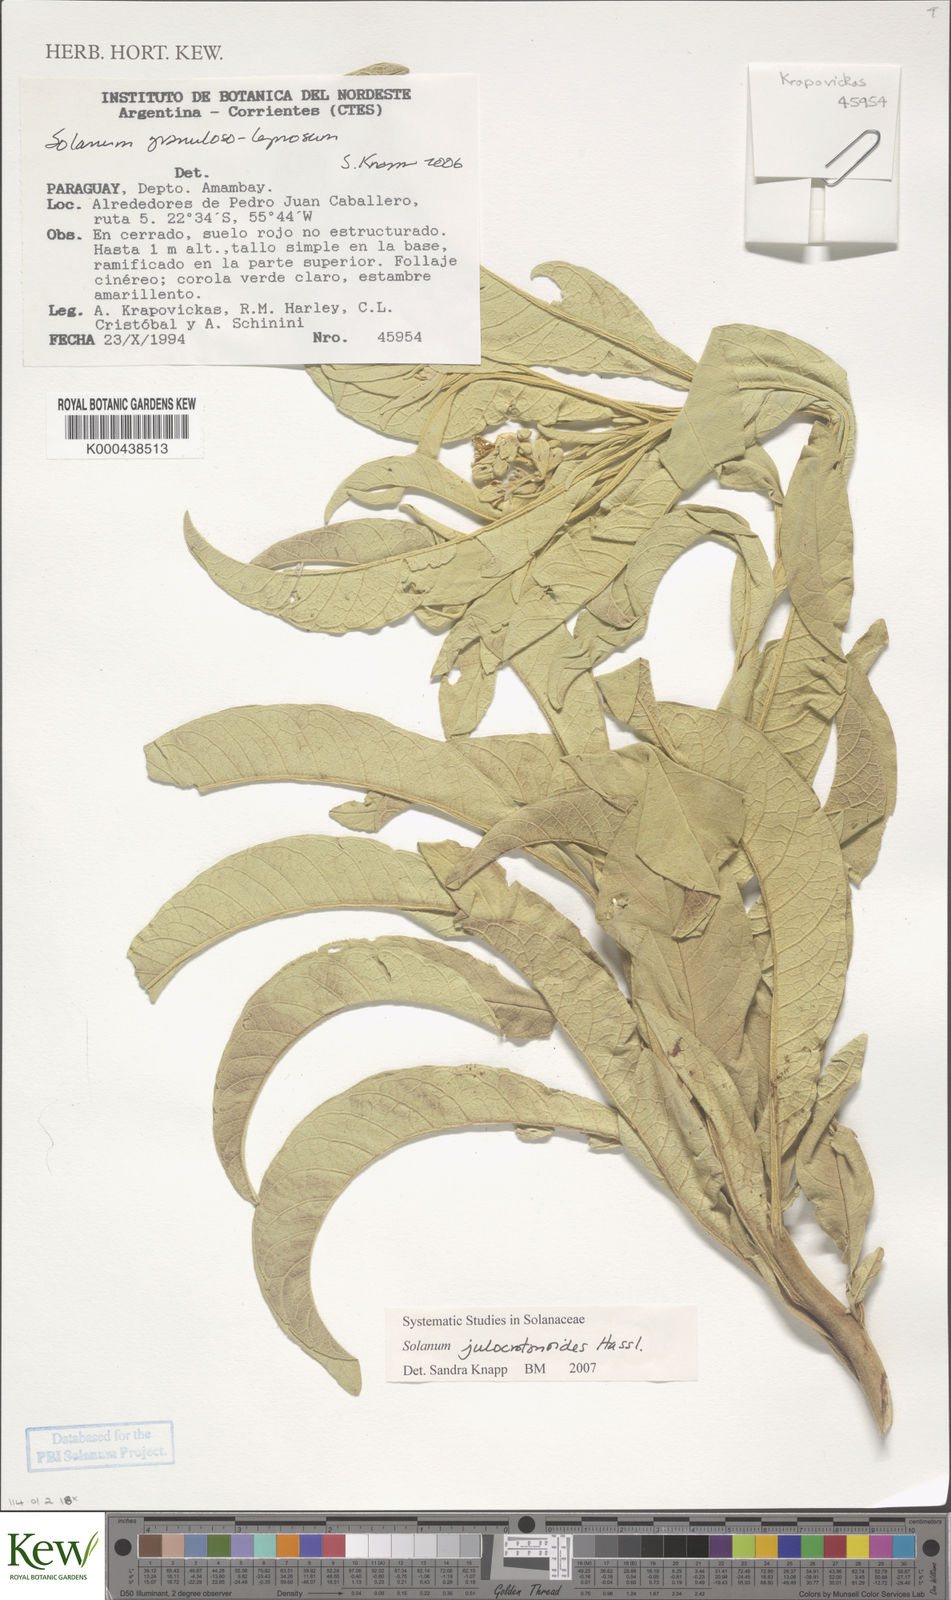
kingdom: Plantae
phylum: Tracheophyta
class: Magnoliopsida
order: Solanales
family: Solanaceae
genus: Solanum
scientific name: Solanum julocrotonoides
